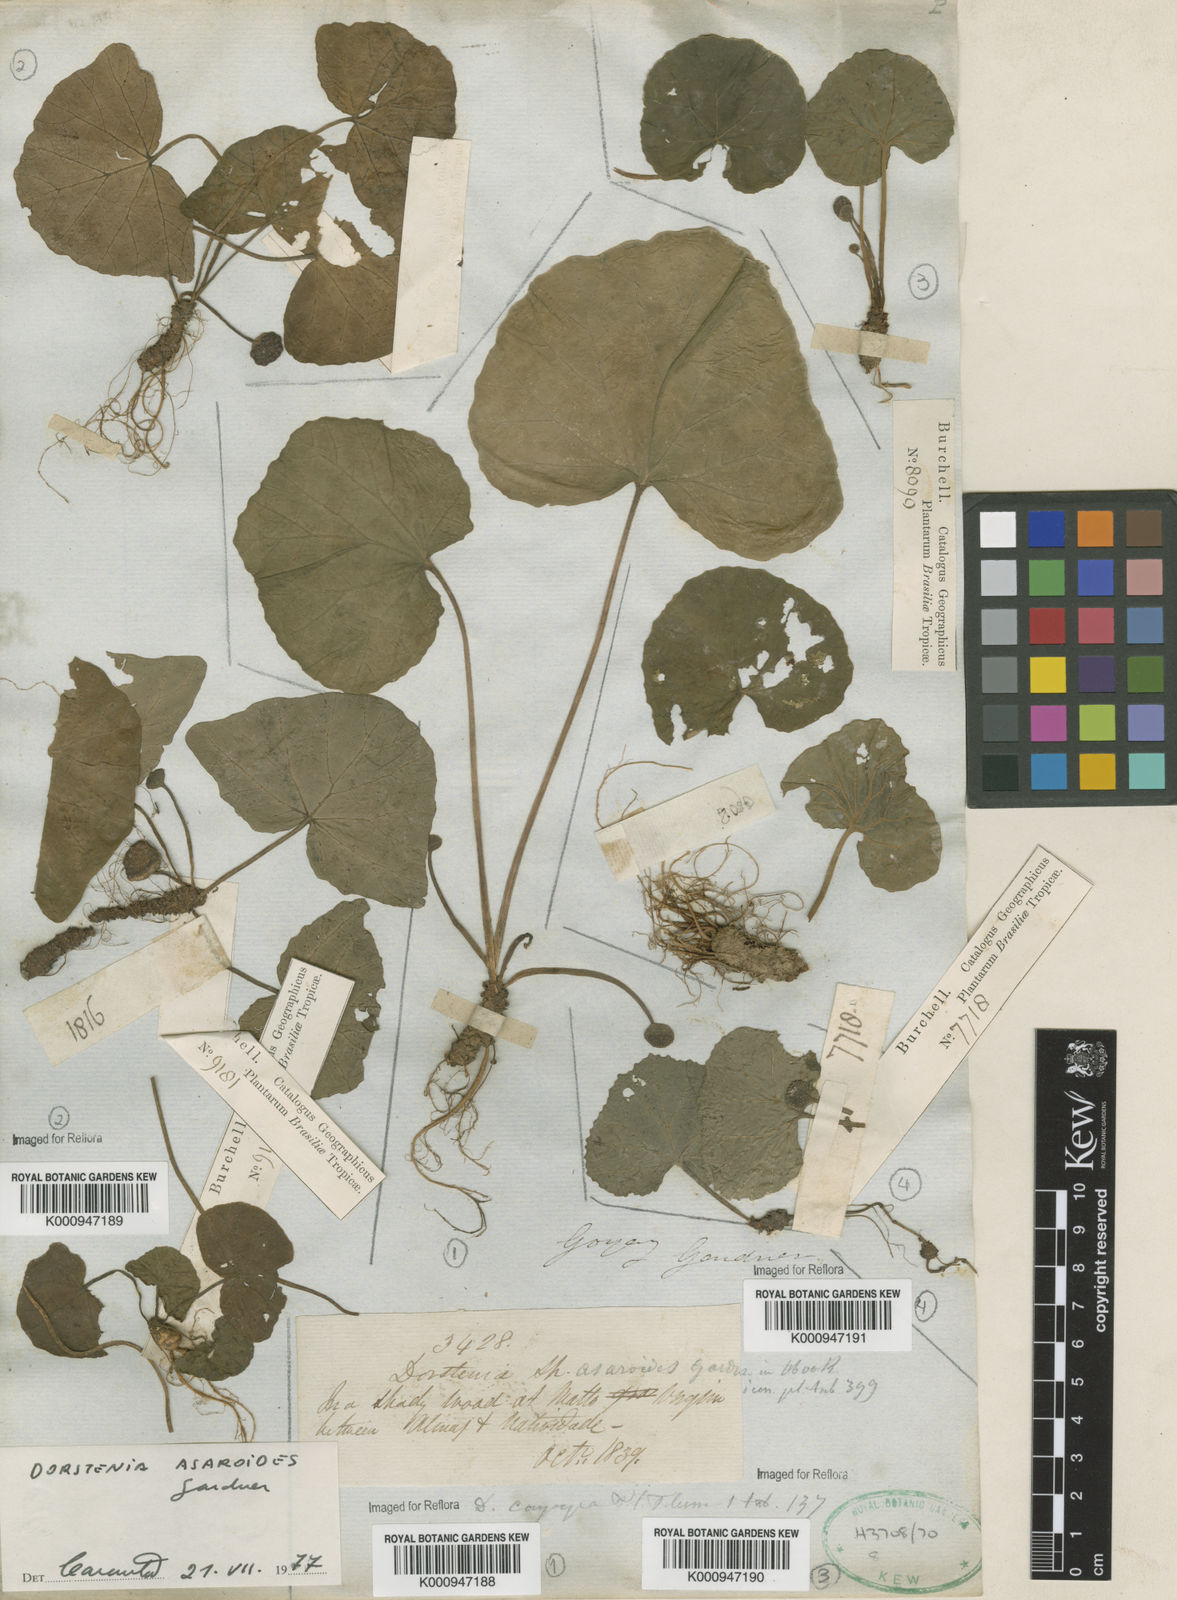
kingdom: Plantae
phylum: Tracheophyta
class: Magnoliopsida
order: Rosales
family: Moraceae
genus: Dorstenia
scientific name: Dorstenia
